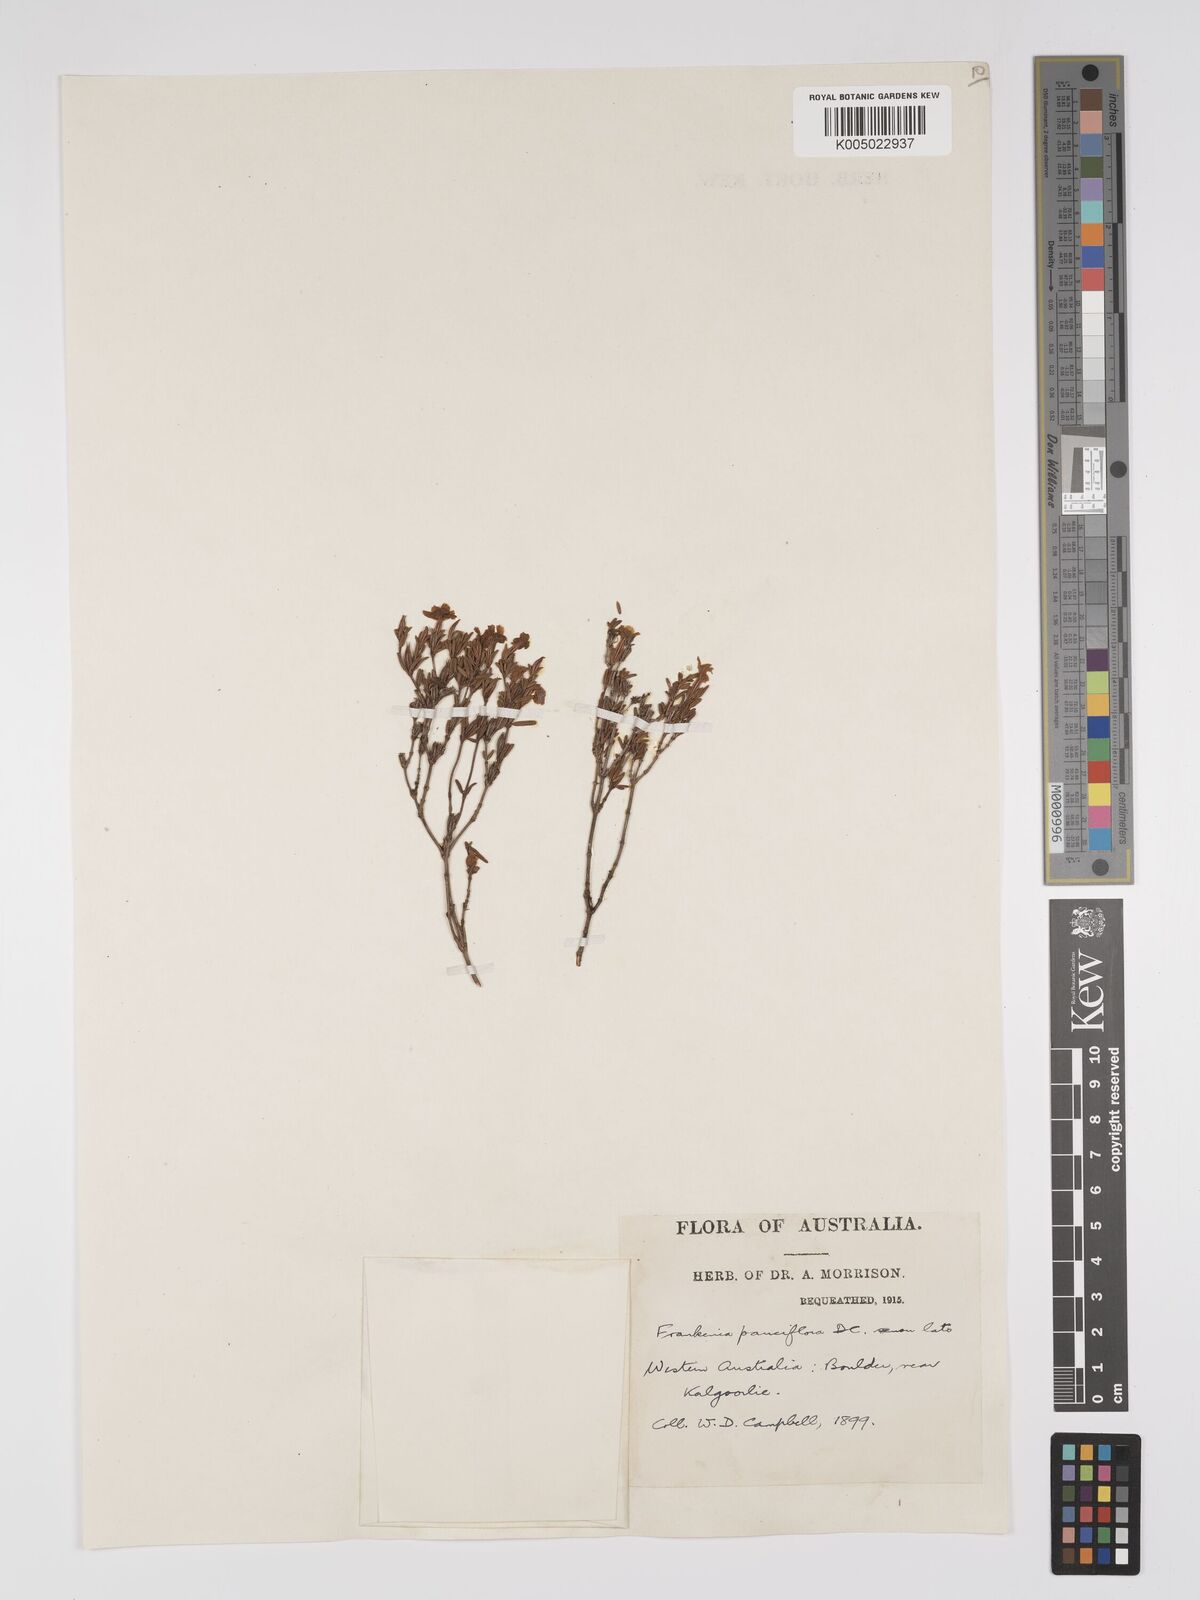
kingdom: Plantae
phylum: Tracheophyta
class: Magnoliopsida
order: Caryophyllales
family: Frankeniaceae
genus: Frankenia
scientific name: Frankenia pauciflora
